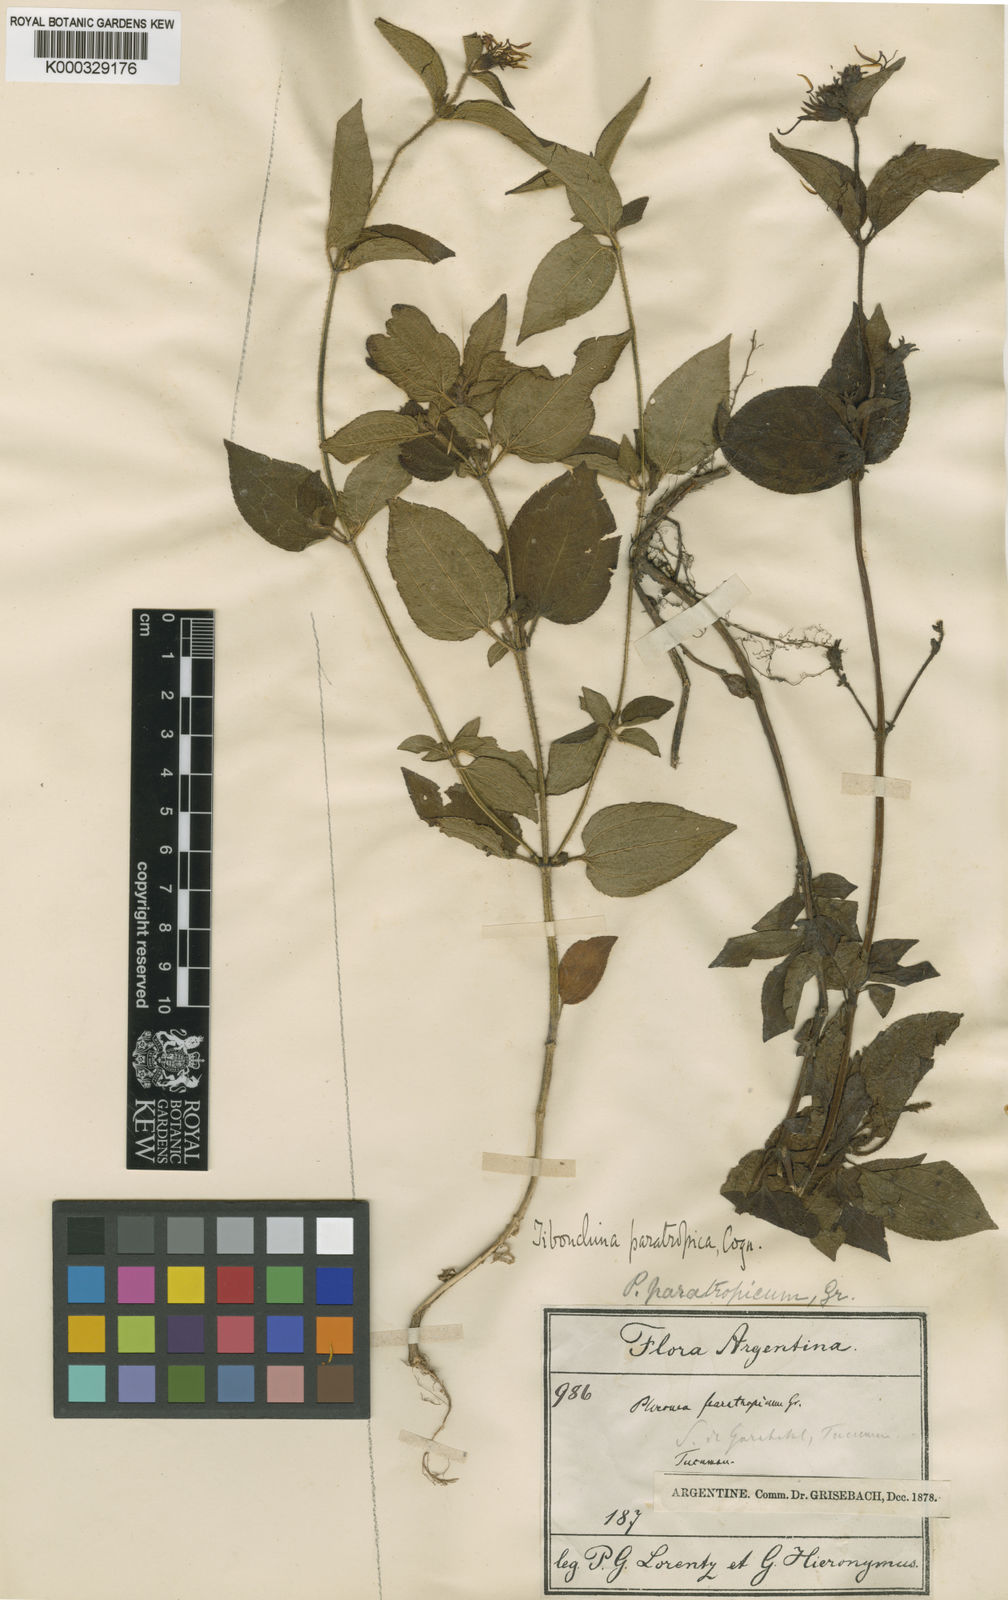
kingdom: Plantae
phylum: Tracheophyta
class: Magnoliopsida
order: Myrtales
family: Melastomataceae
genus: Chaetogastra
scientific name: Chaetogastra paratropica
